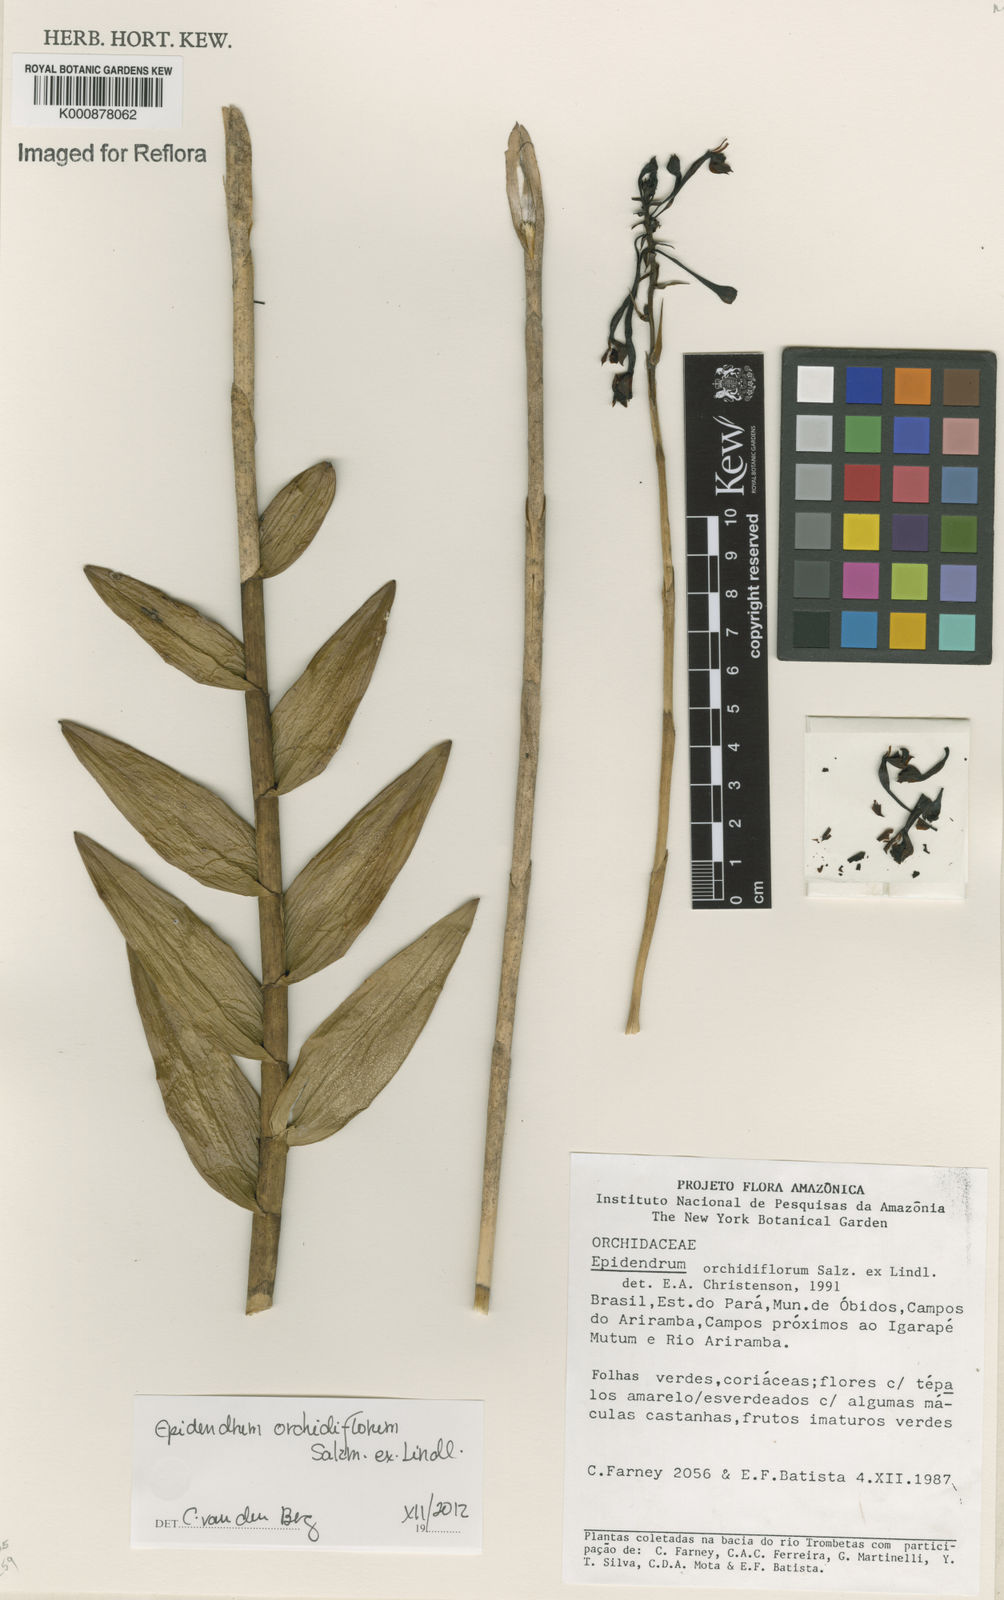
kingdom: Plantae
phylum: Tracheophyta
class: Liliopsida
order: Asparagales
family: Orchidaceae
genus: Epidendrum
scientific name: Epidendrum orchidiflorum
